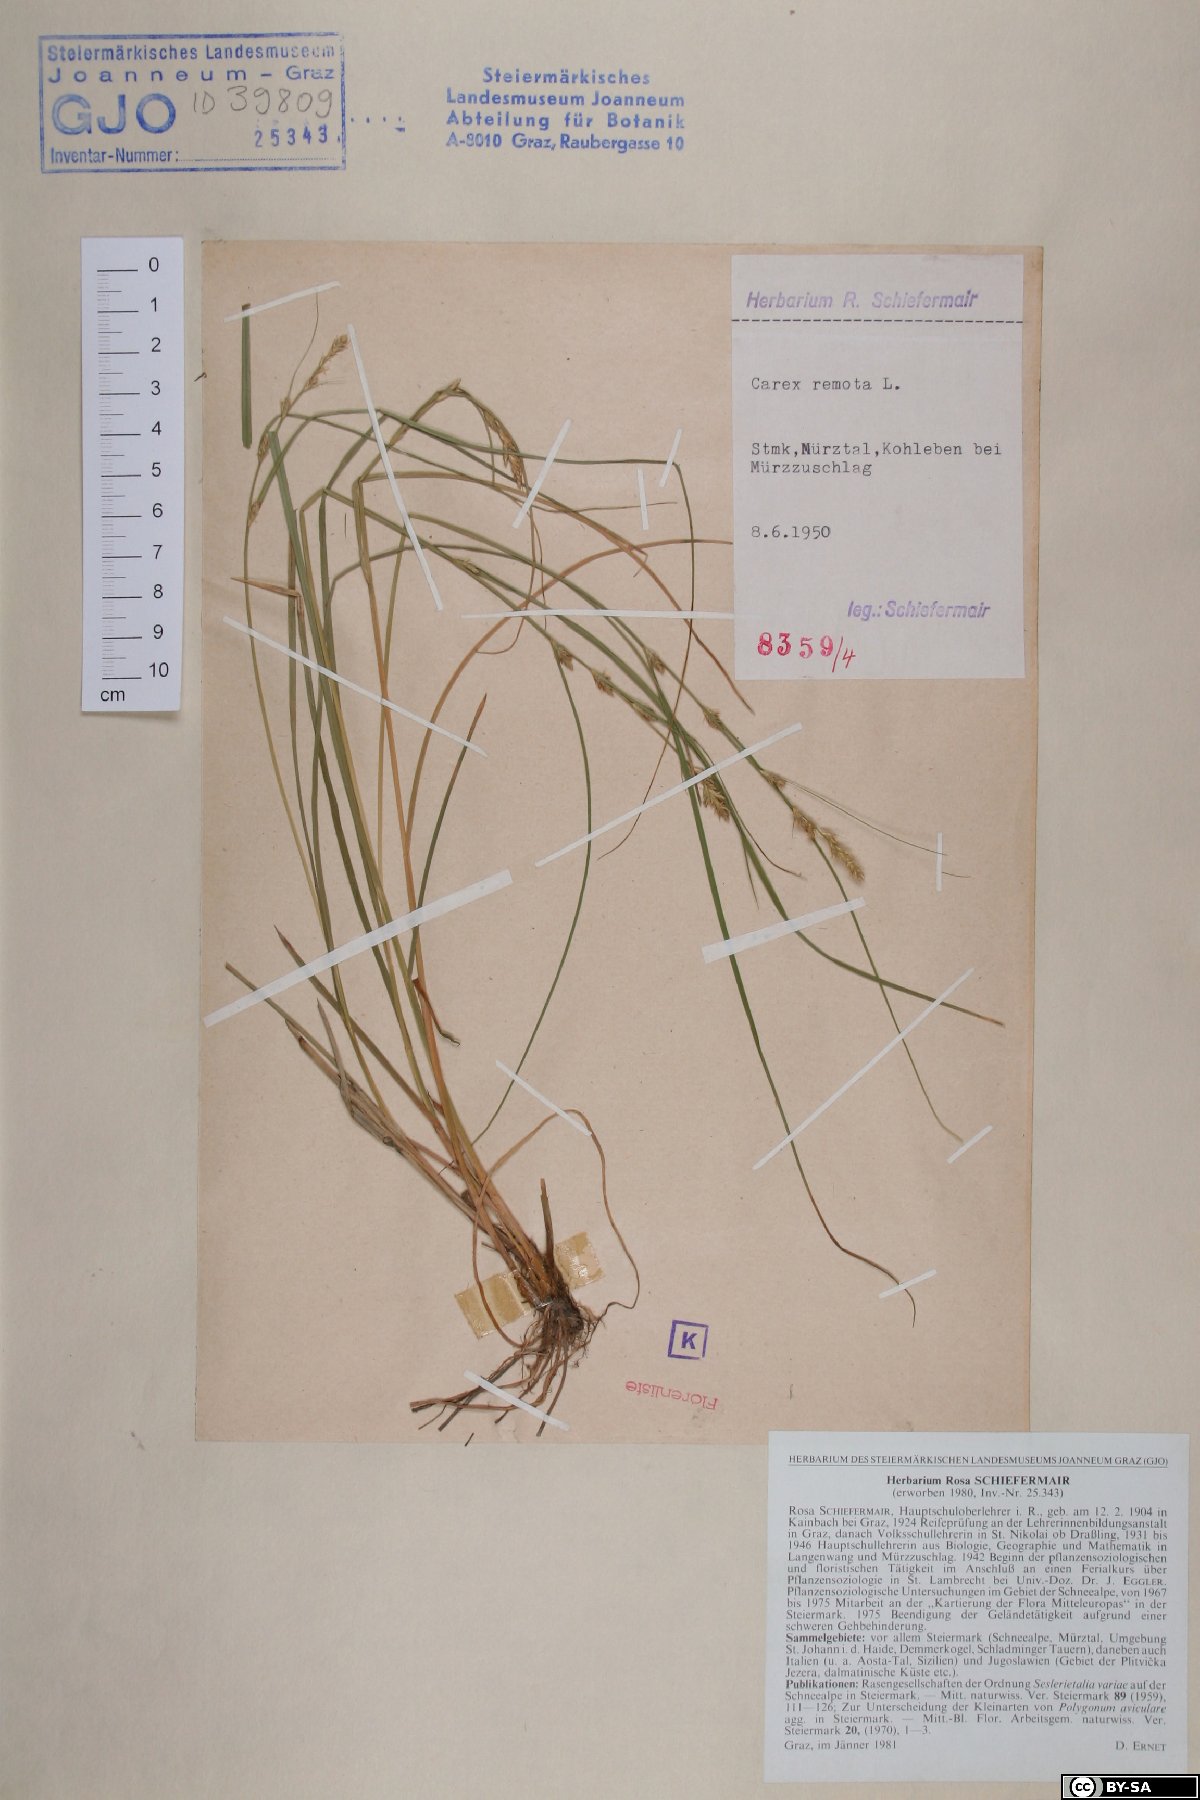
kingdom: Plantae
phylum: Tracheophyta
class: Liliopsida
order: Poales
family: Cyperaceae
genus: Carex
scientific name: Carex remota
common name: Remote sedge
